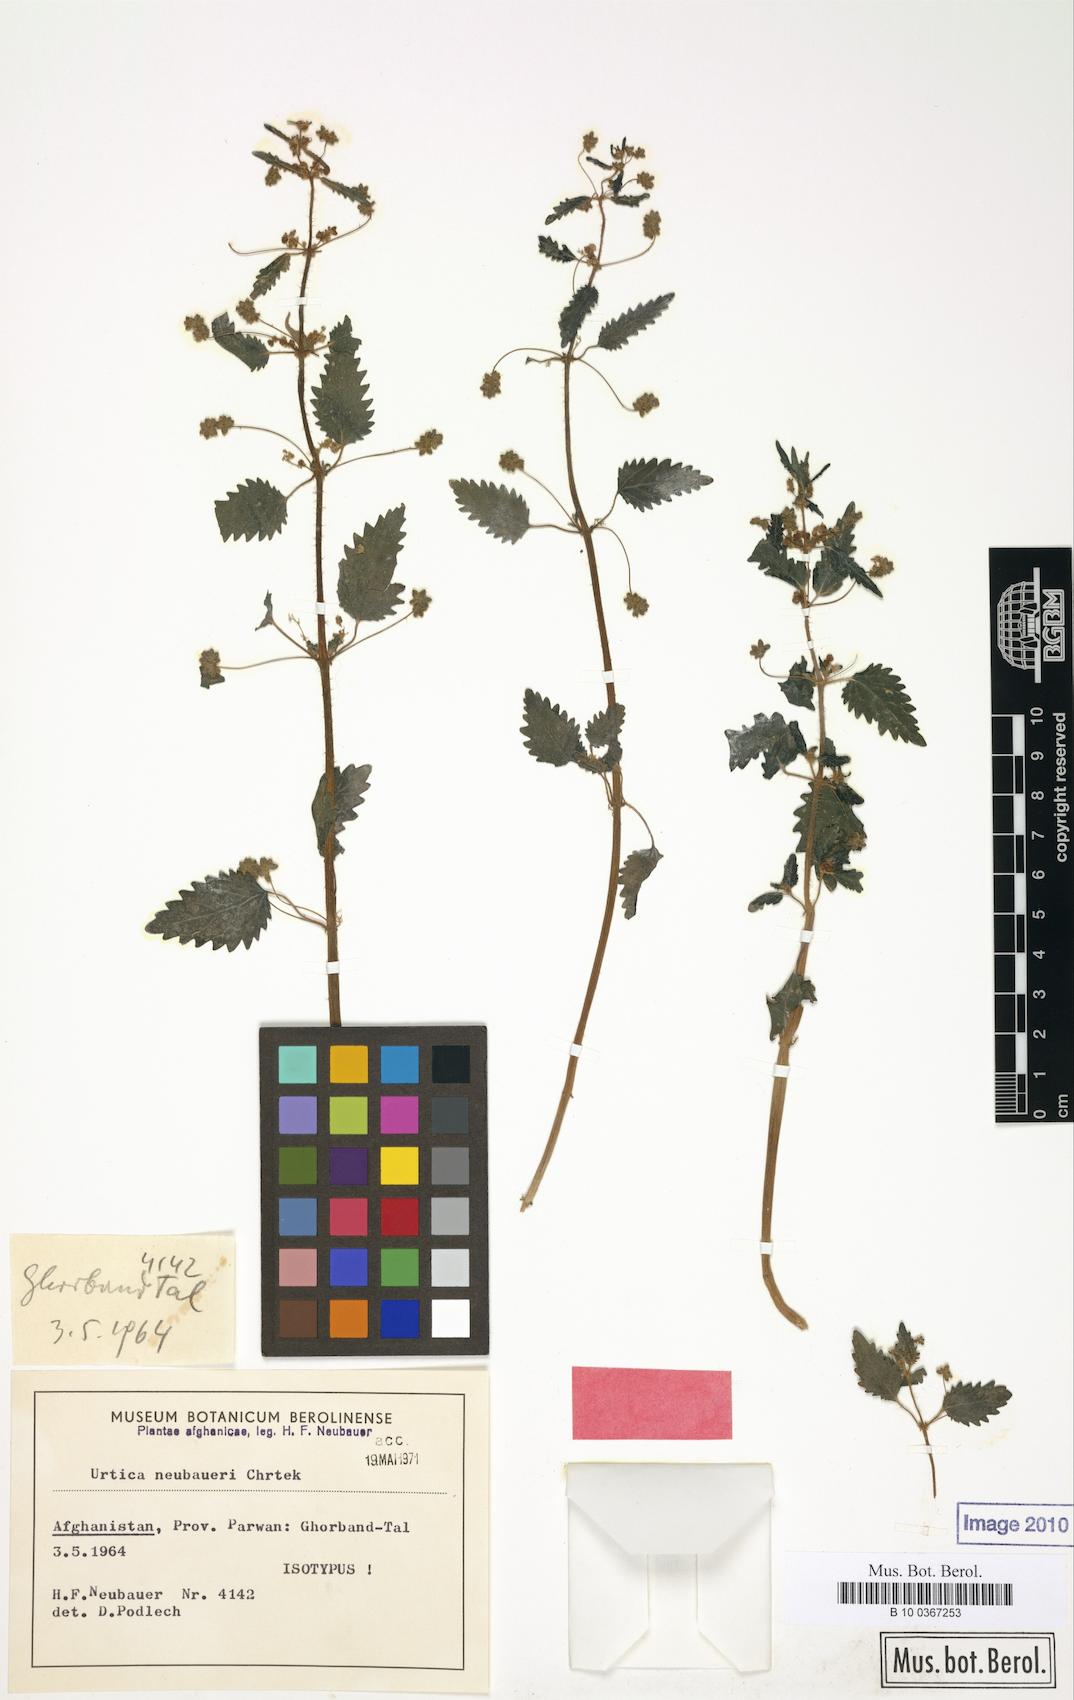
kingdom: Plantae
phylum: Tracheophyta
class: Magnoliopsida
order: Rosales
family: Urticaceae
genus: Urtica
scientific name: Urtica neubaueri
